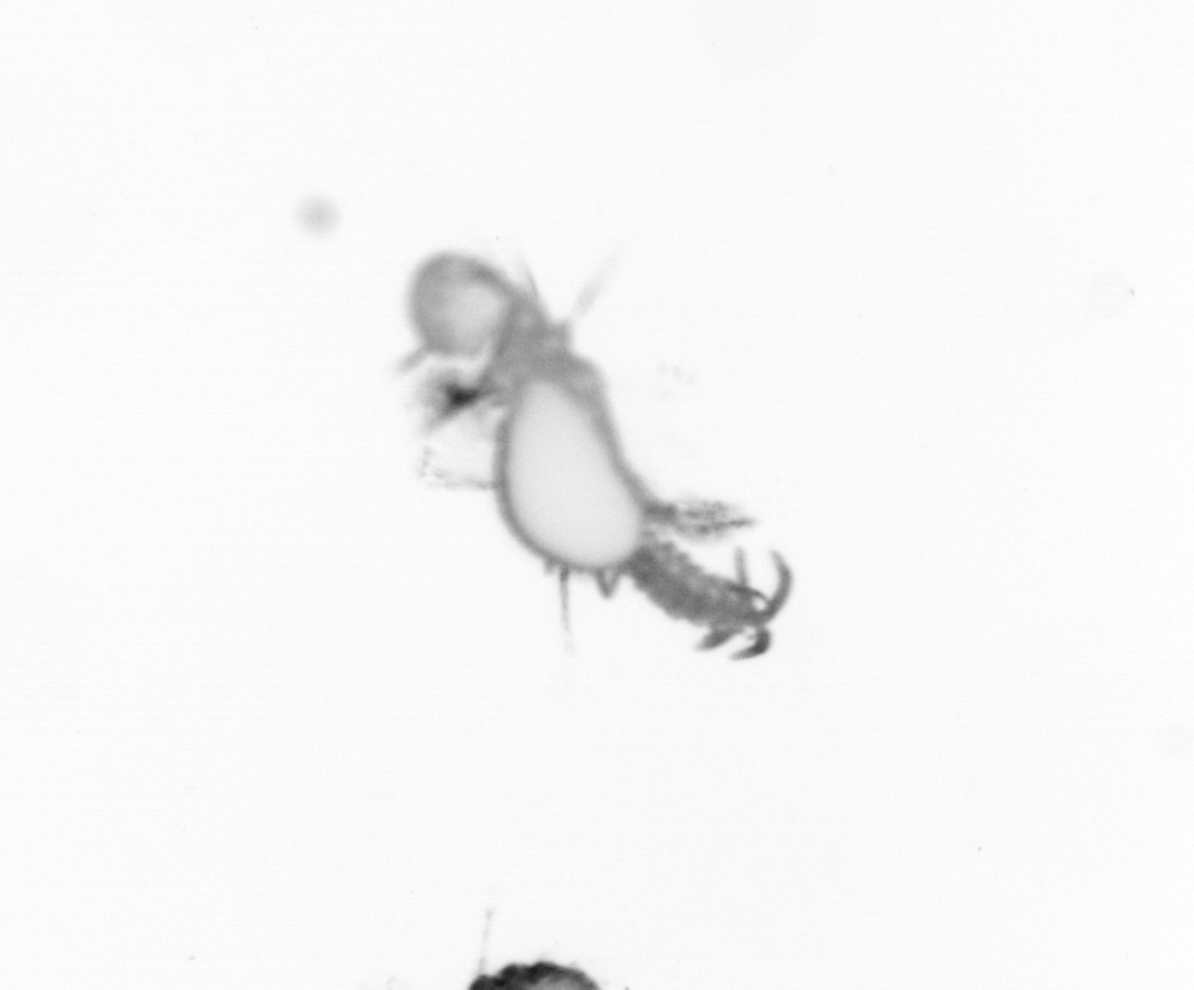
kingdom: Animalia
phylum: Annelida
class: Polychaeta
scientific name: Polychaeta
